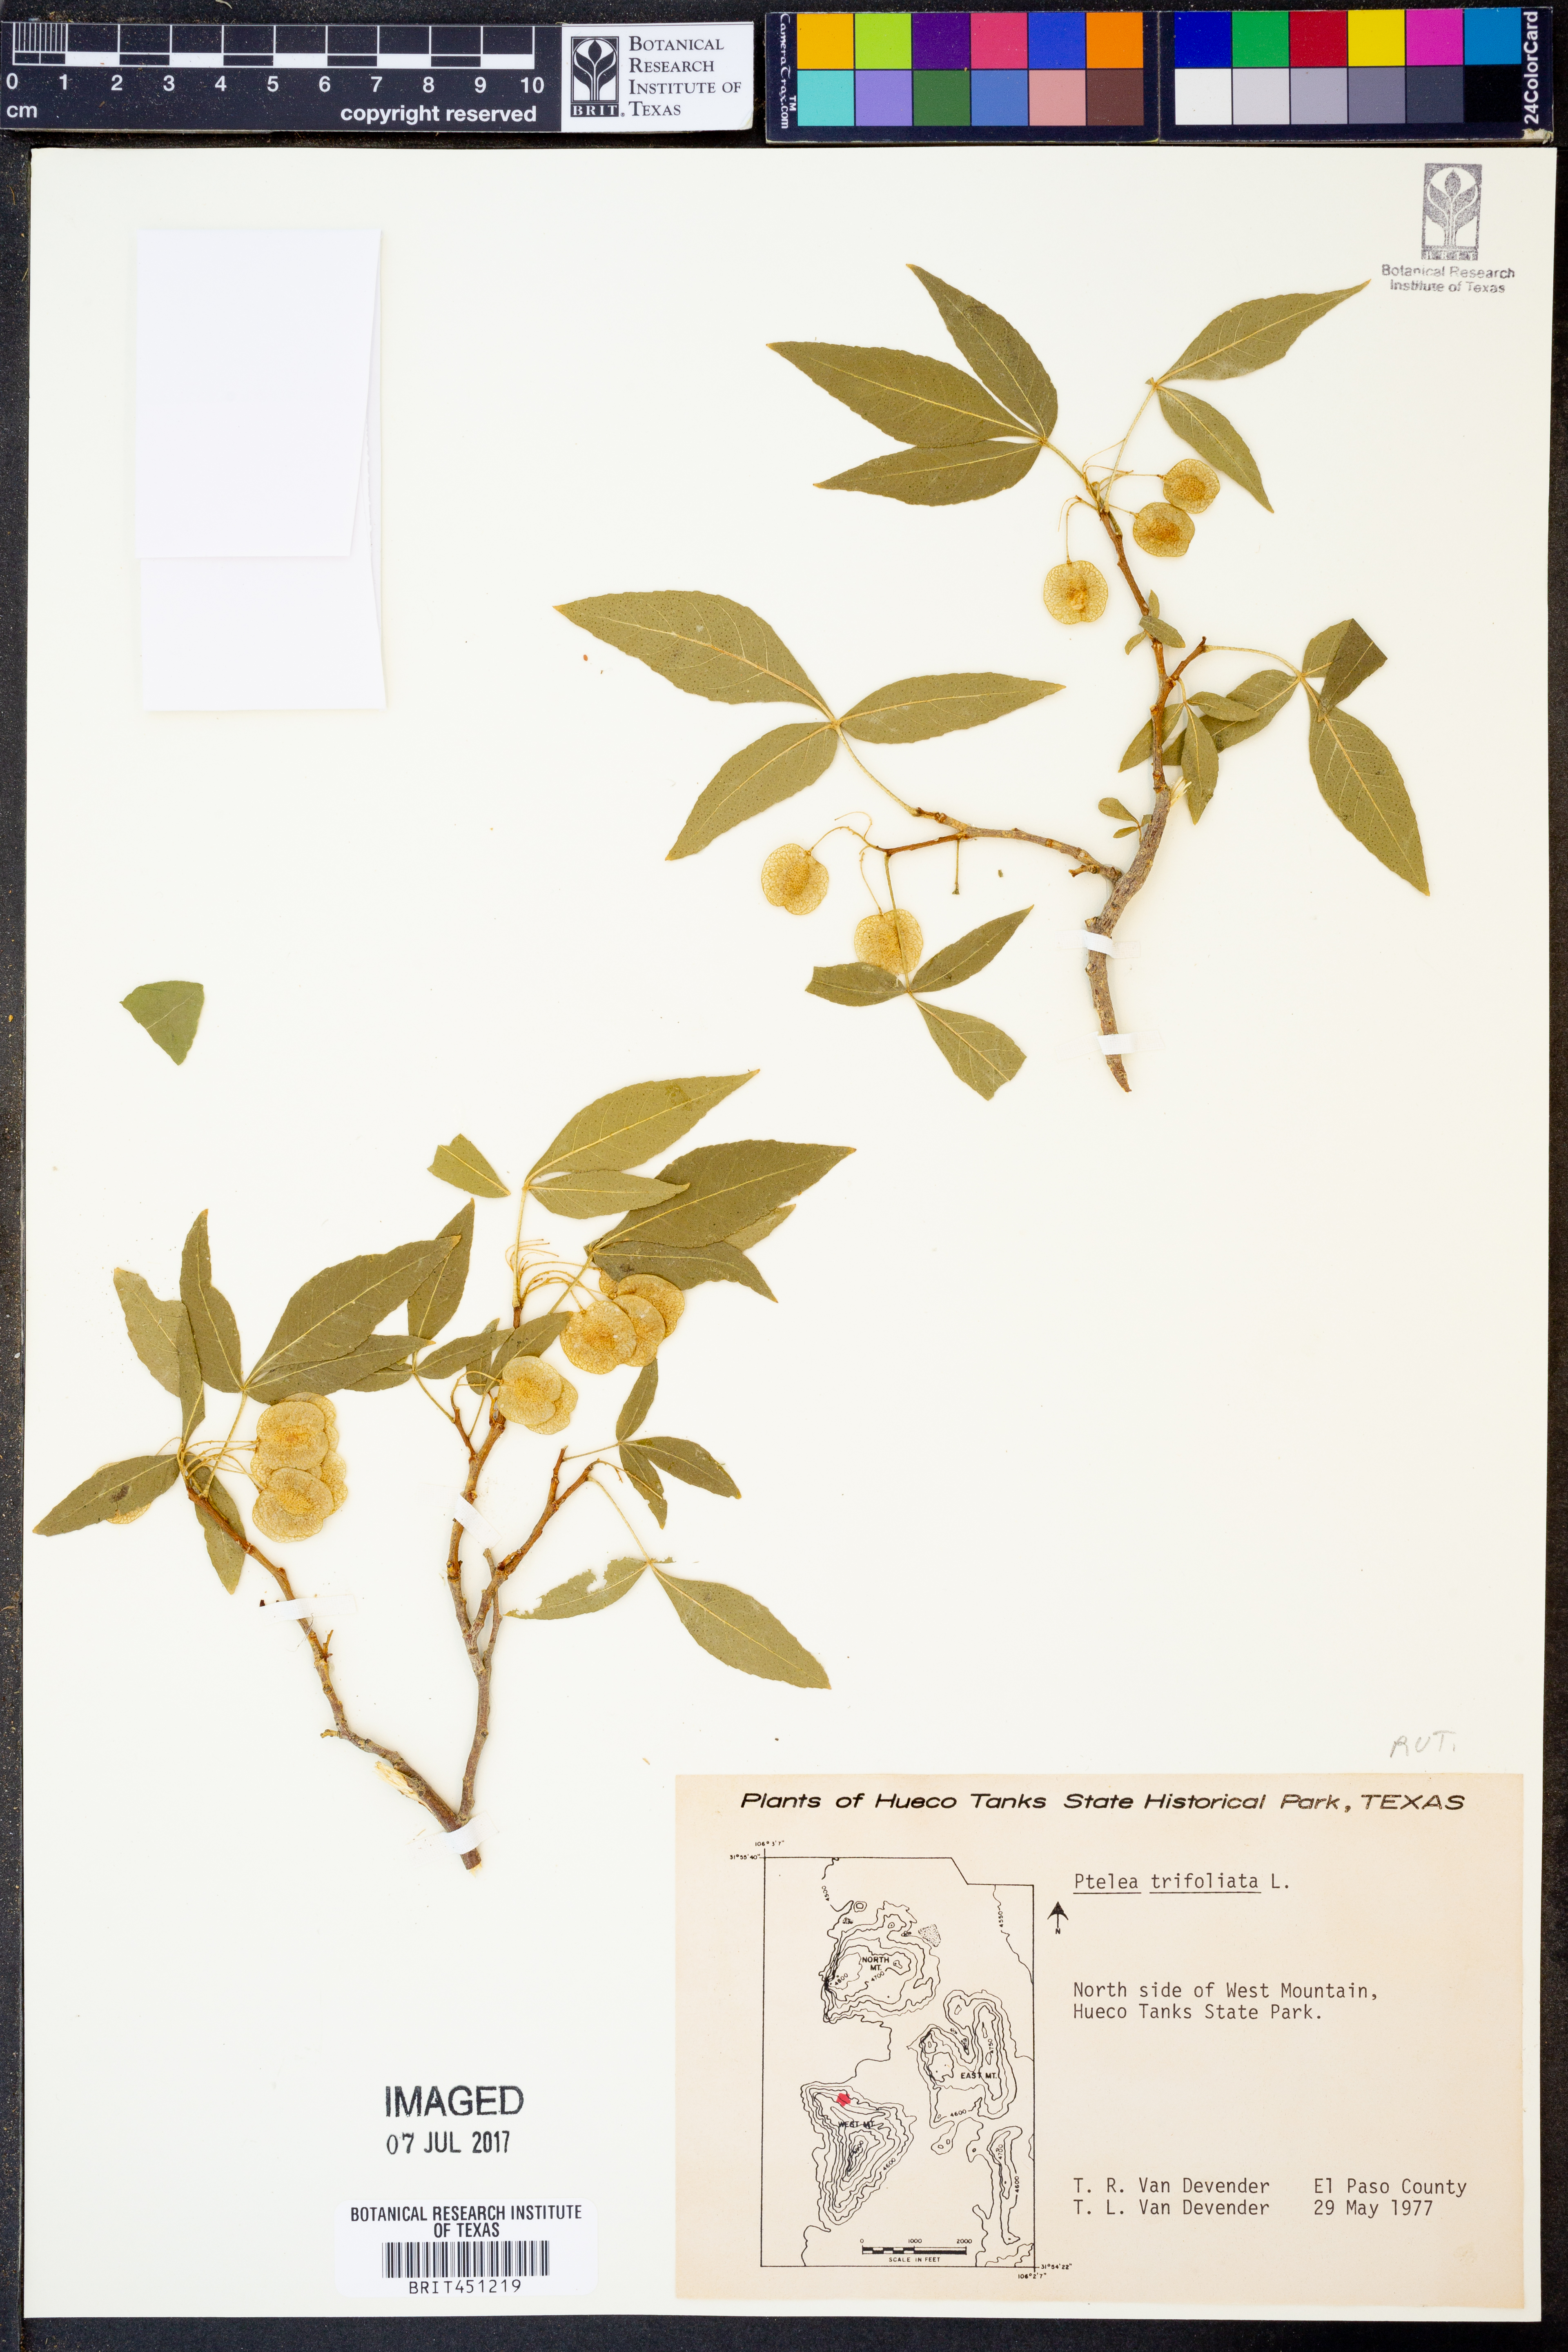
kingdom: Plantae
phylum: Tracheophyta
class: Magnoliopsida
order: Sapindales
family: Rutaceae
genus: Ptelea
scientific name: Ptelea trifoliata
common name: Common hop-tree
